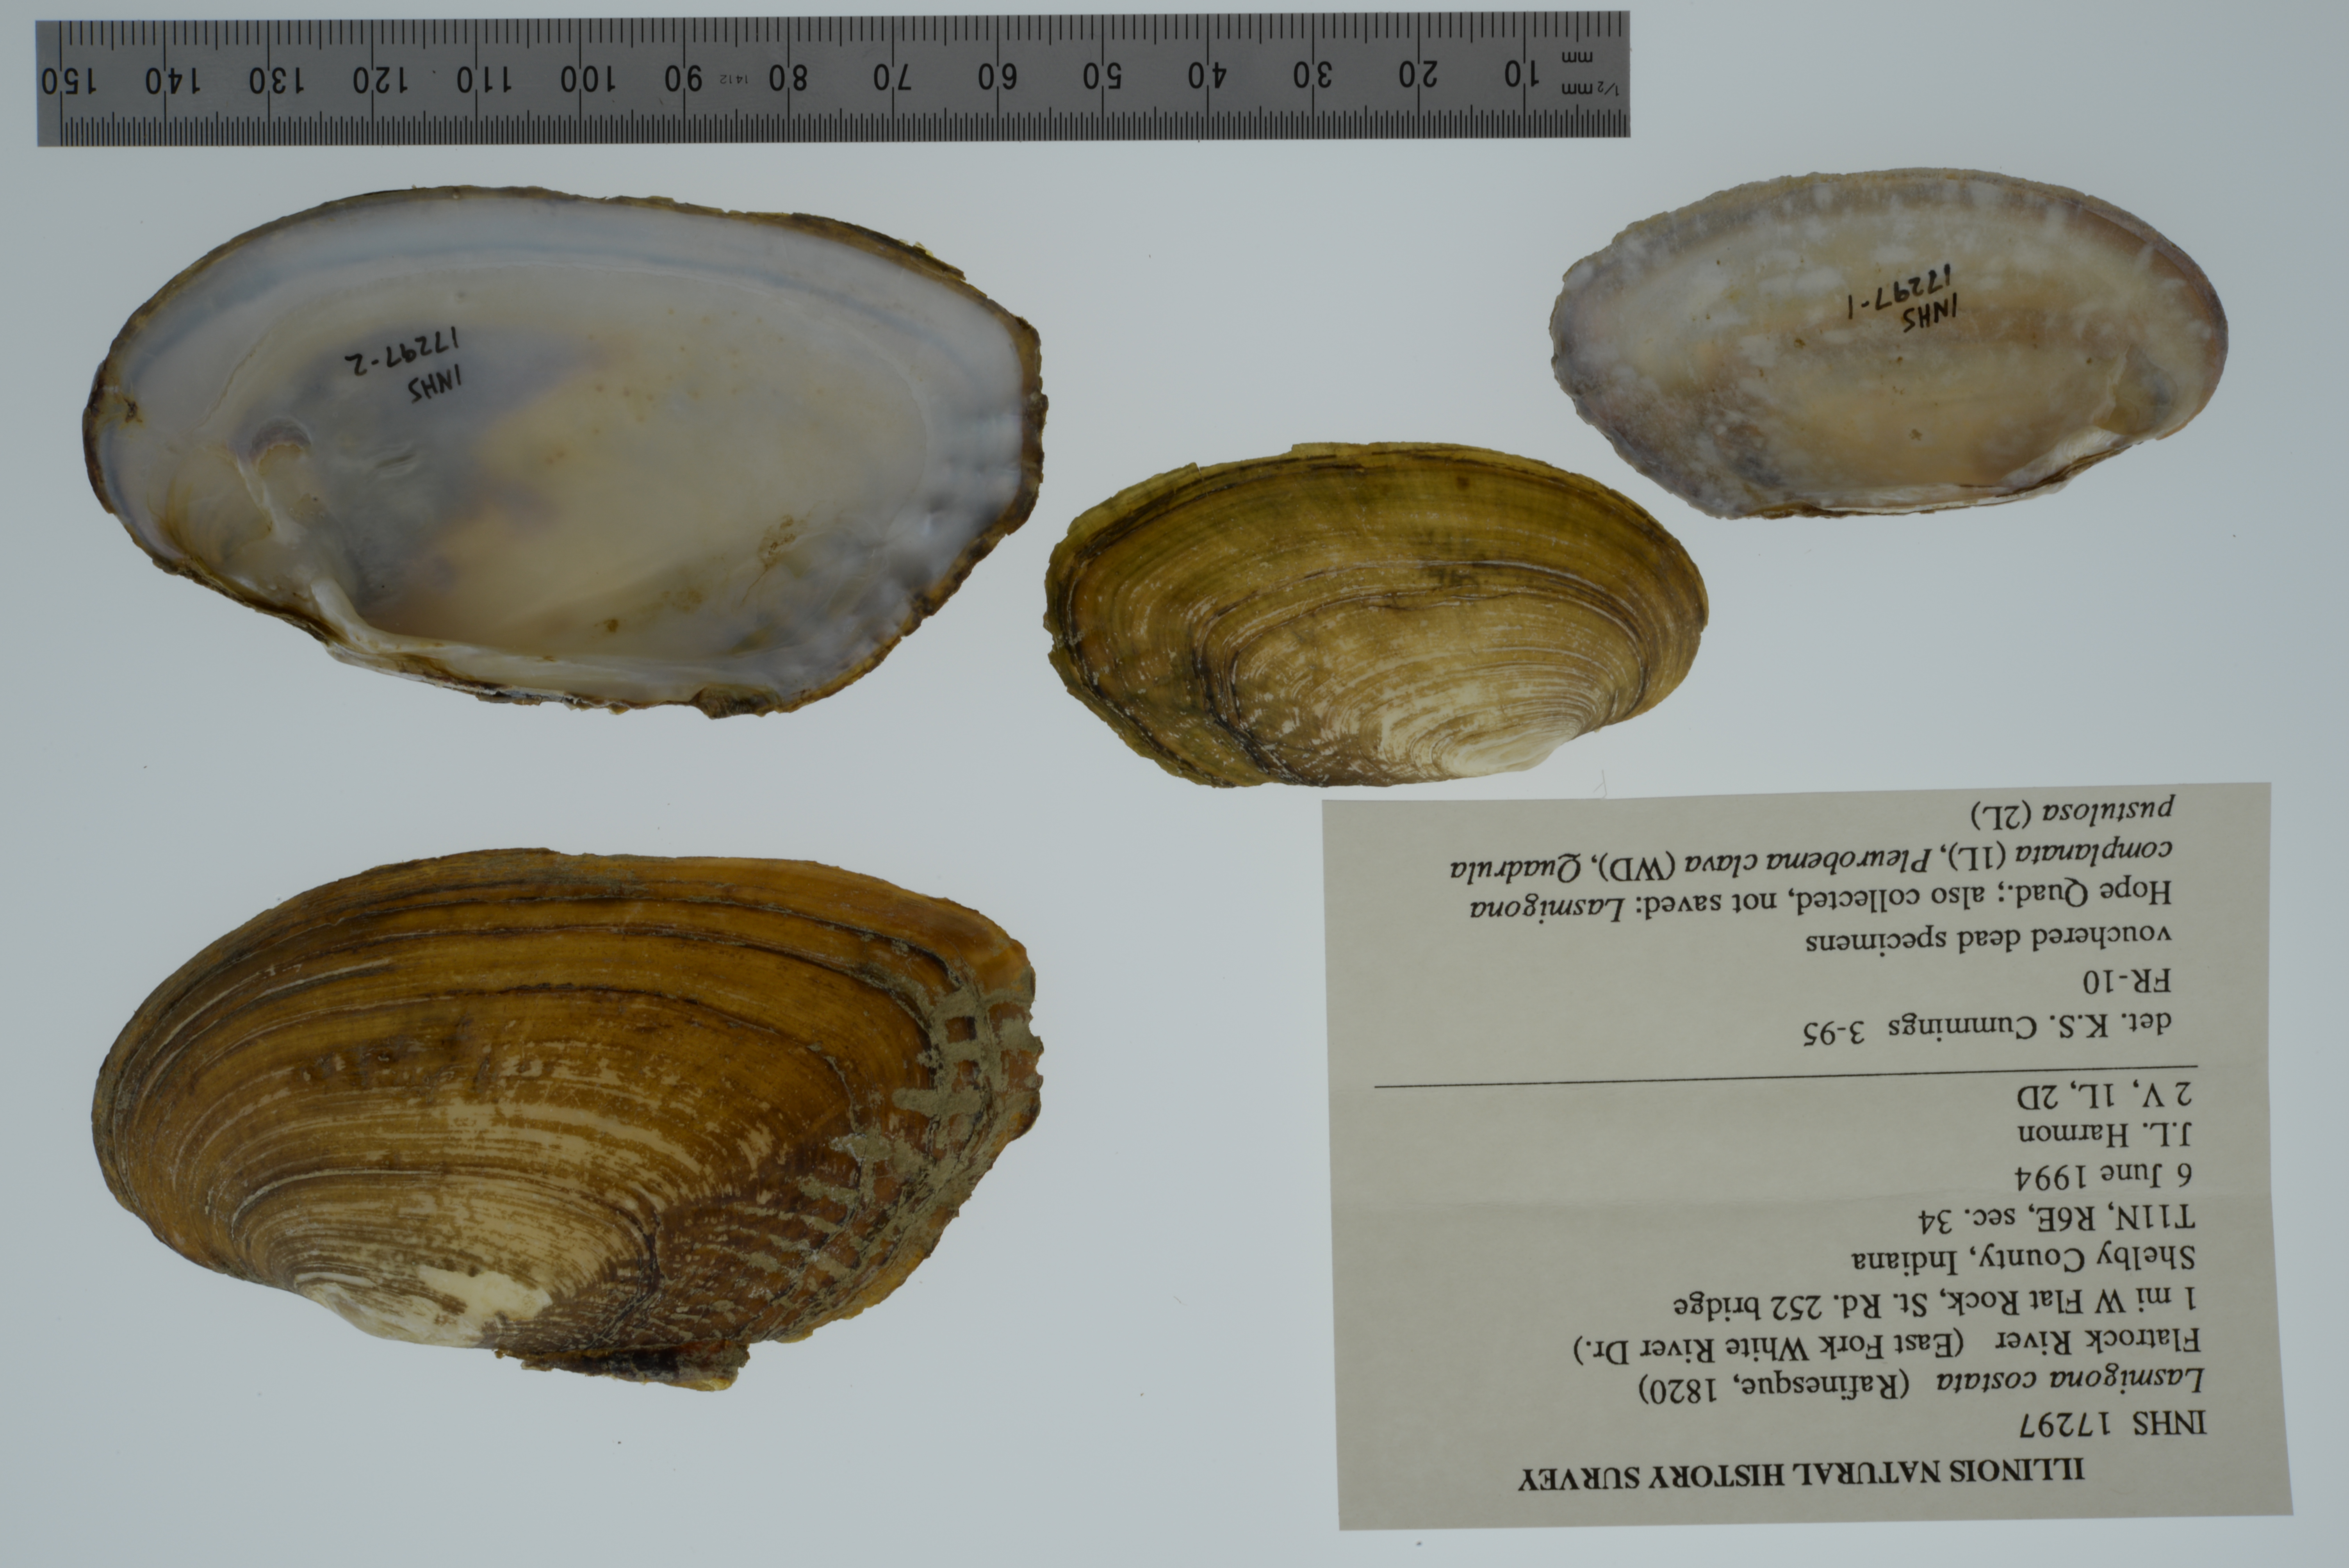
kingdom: Animalia
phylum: Mollusca
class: Bivalvia
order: Unionida
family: Unionidae
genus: Lasmigona
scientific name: Lasmigona costata
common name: Flutedshell
